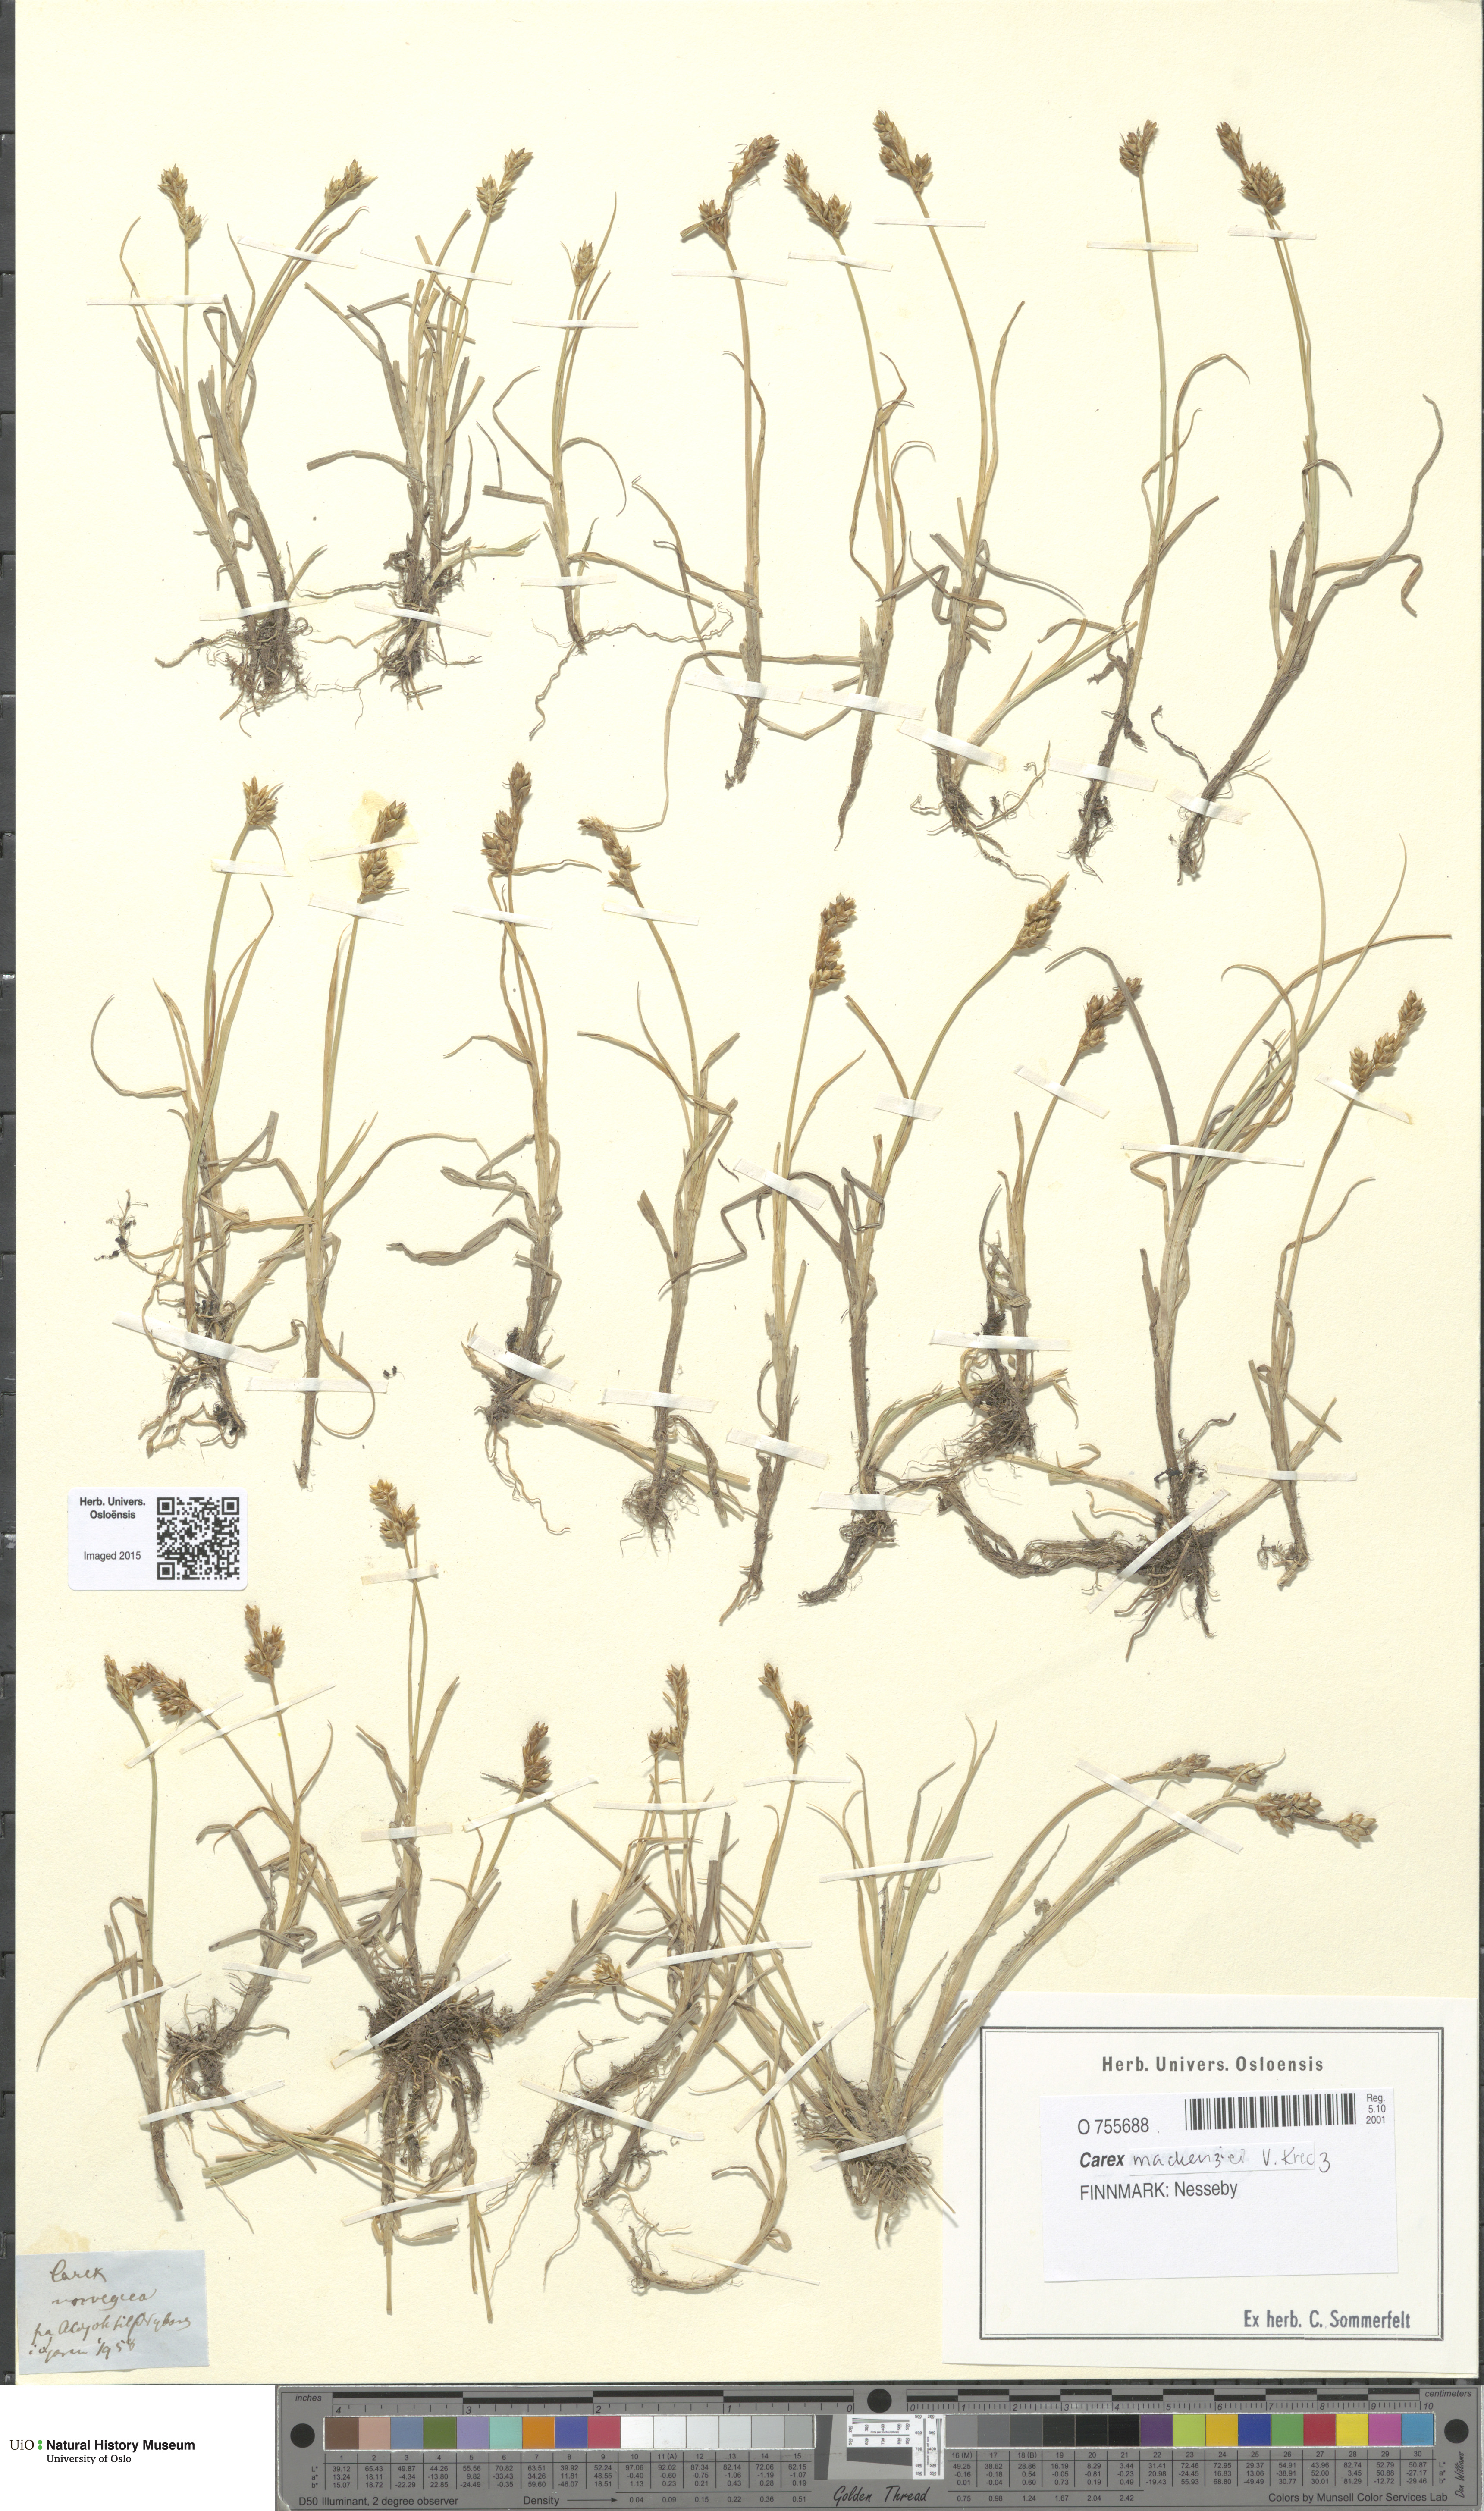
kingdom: Plantae
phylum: Tracheophyta
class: Liliopsida
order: Poales
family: Cyperaceae
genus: Carex
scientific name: Carex mackenziei
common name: Mackenzie's sedge
